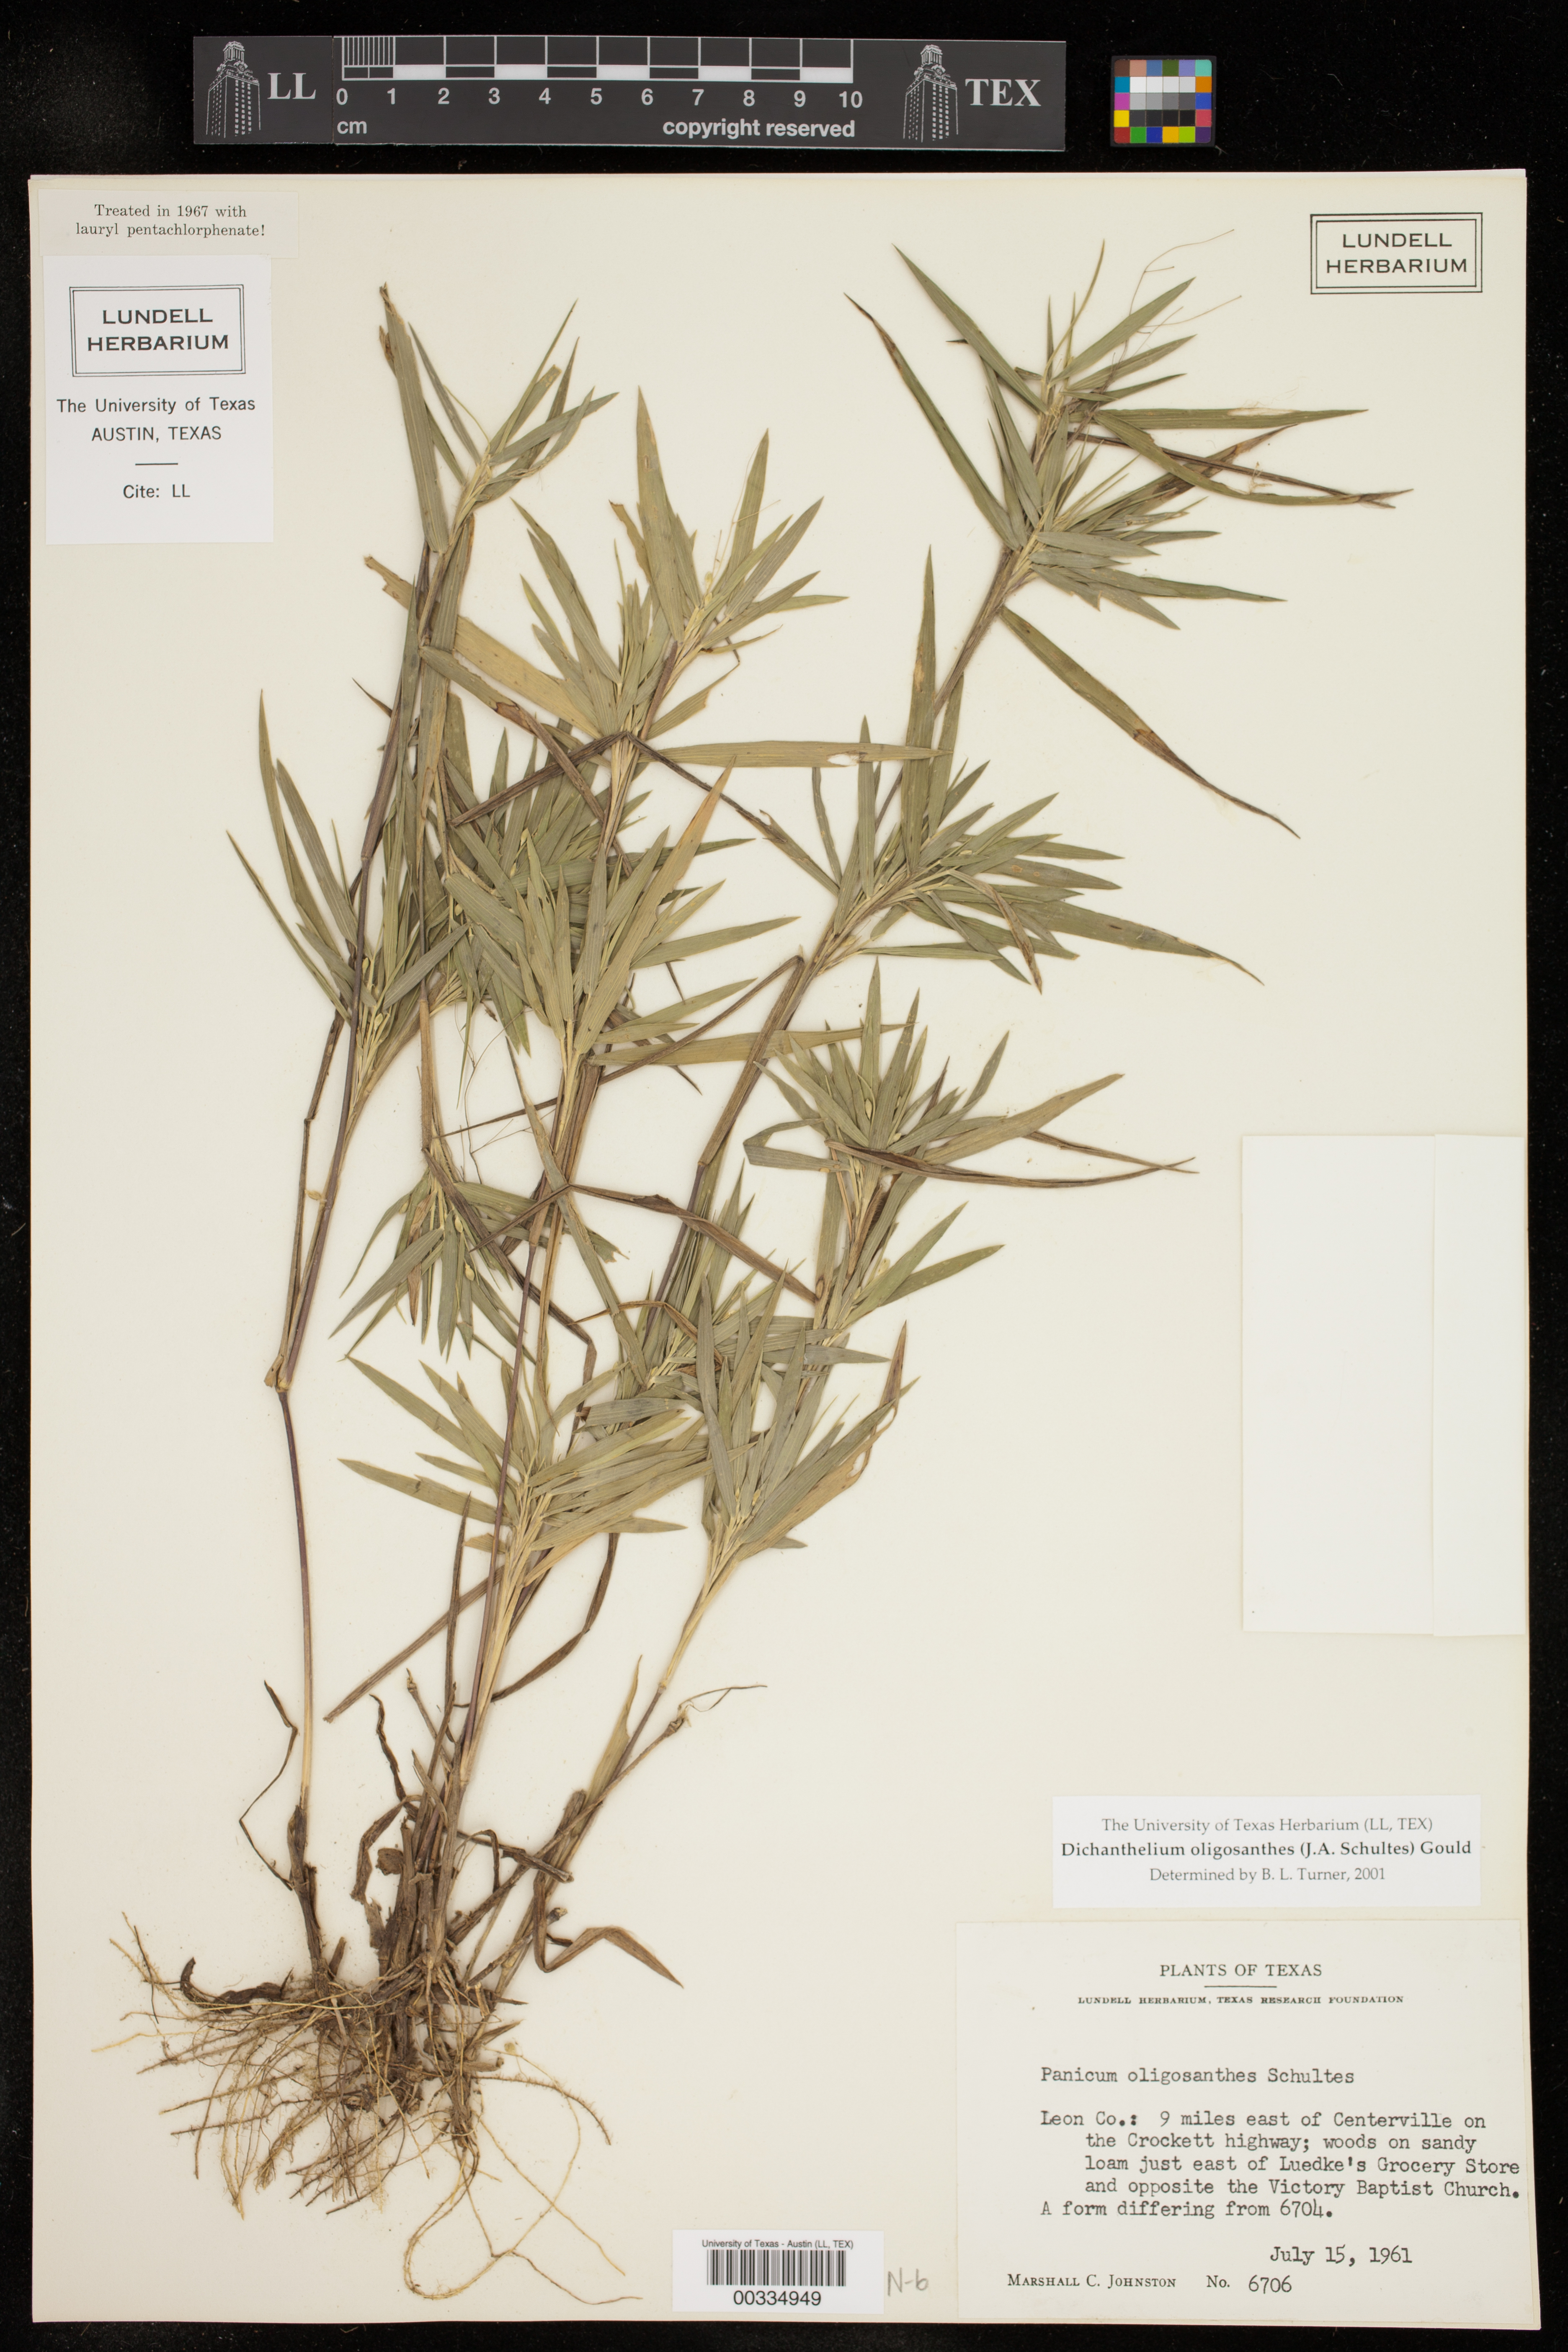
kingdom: Plantae
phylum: Tracheophyta
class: Liliopsida
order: Poales
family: Poaceae
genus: Dichanthelium
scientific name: Dichanthelium oligosanthes
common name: Few-anther obscuregrass
